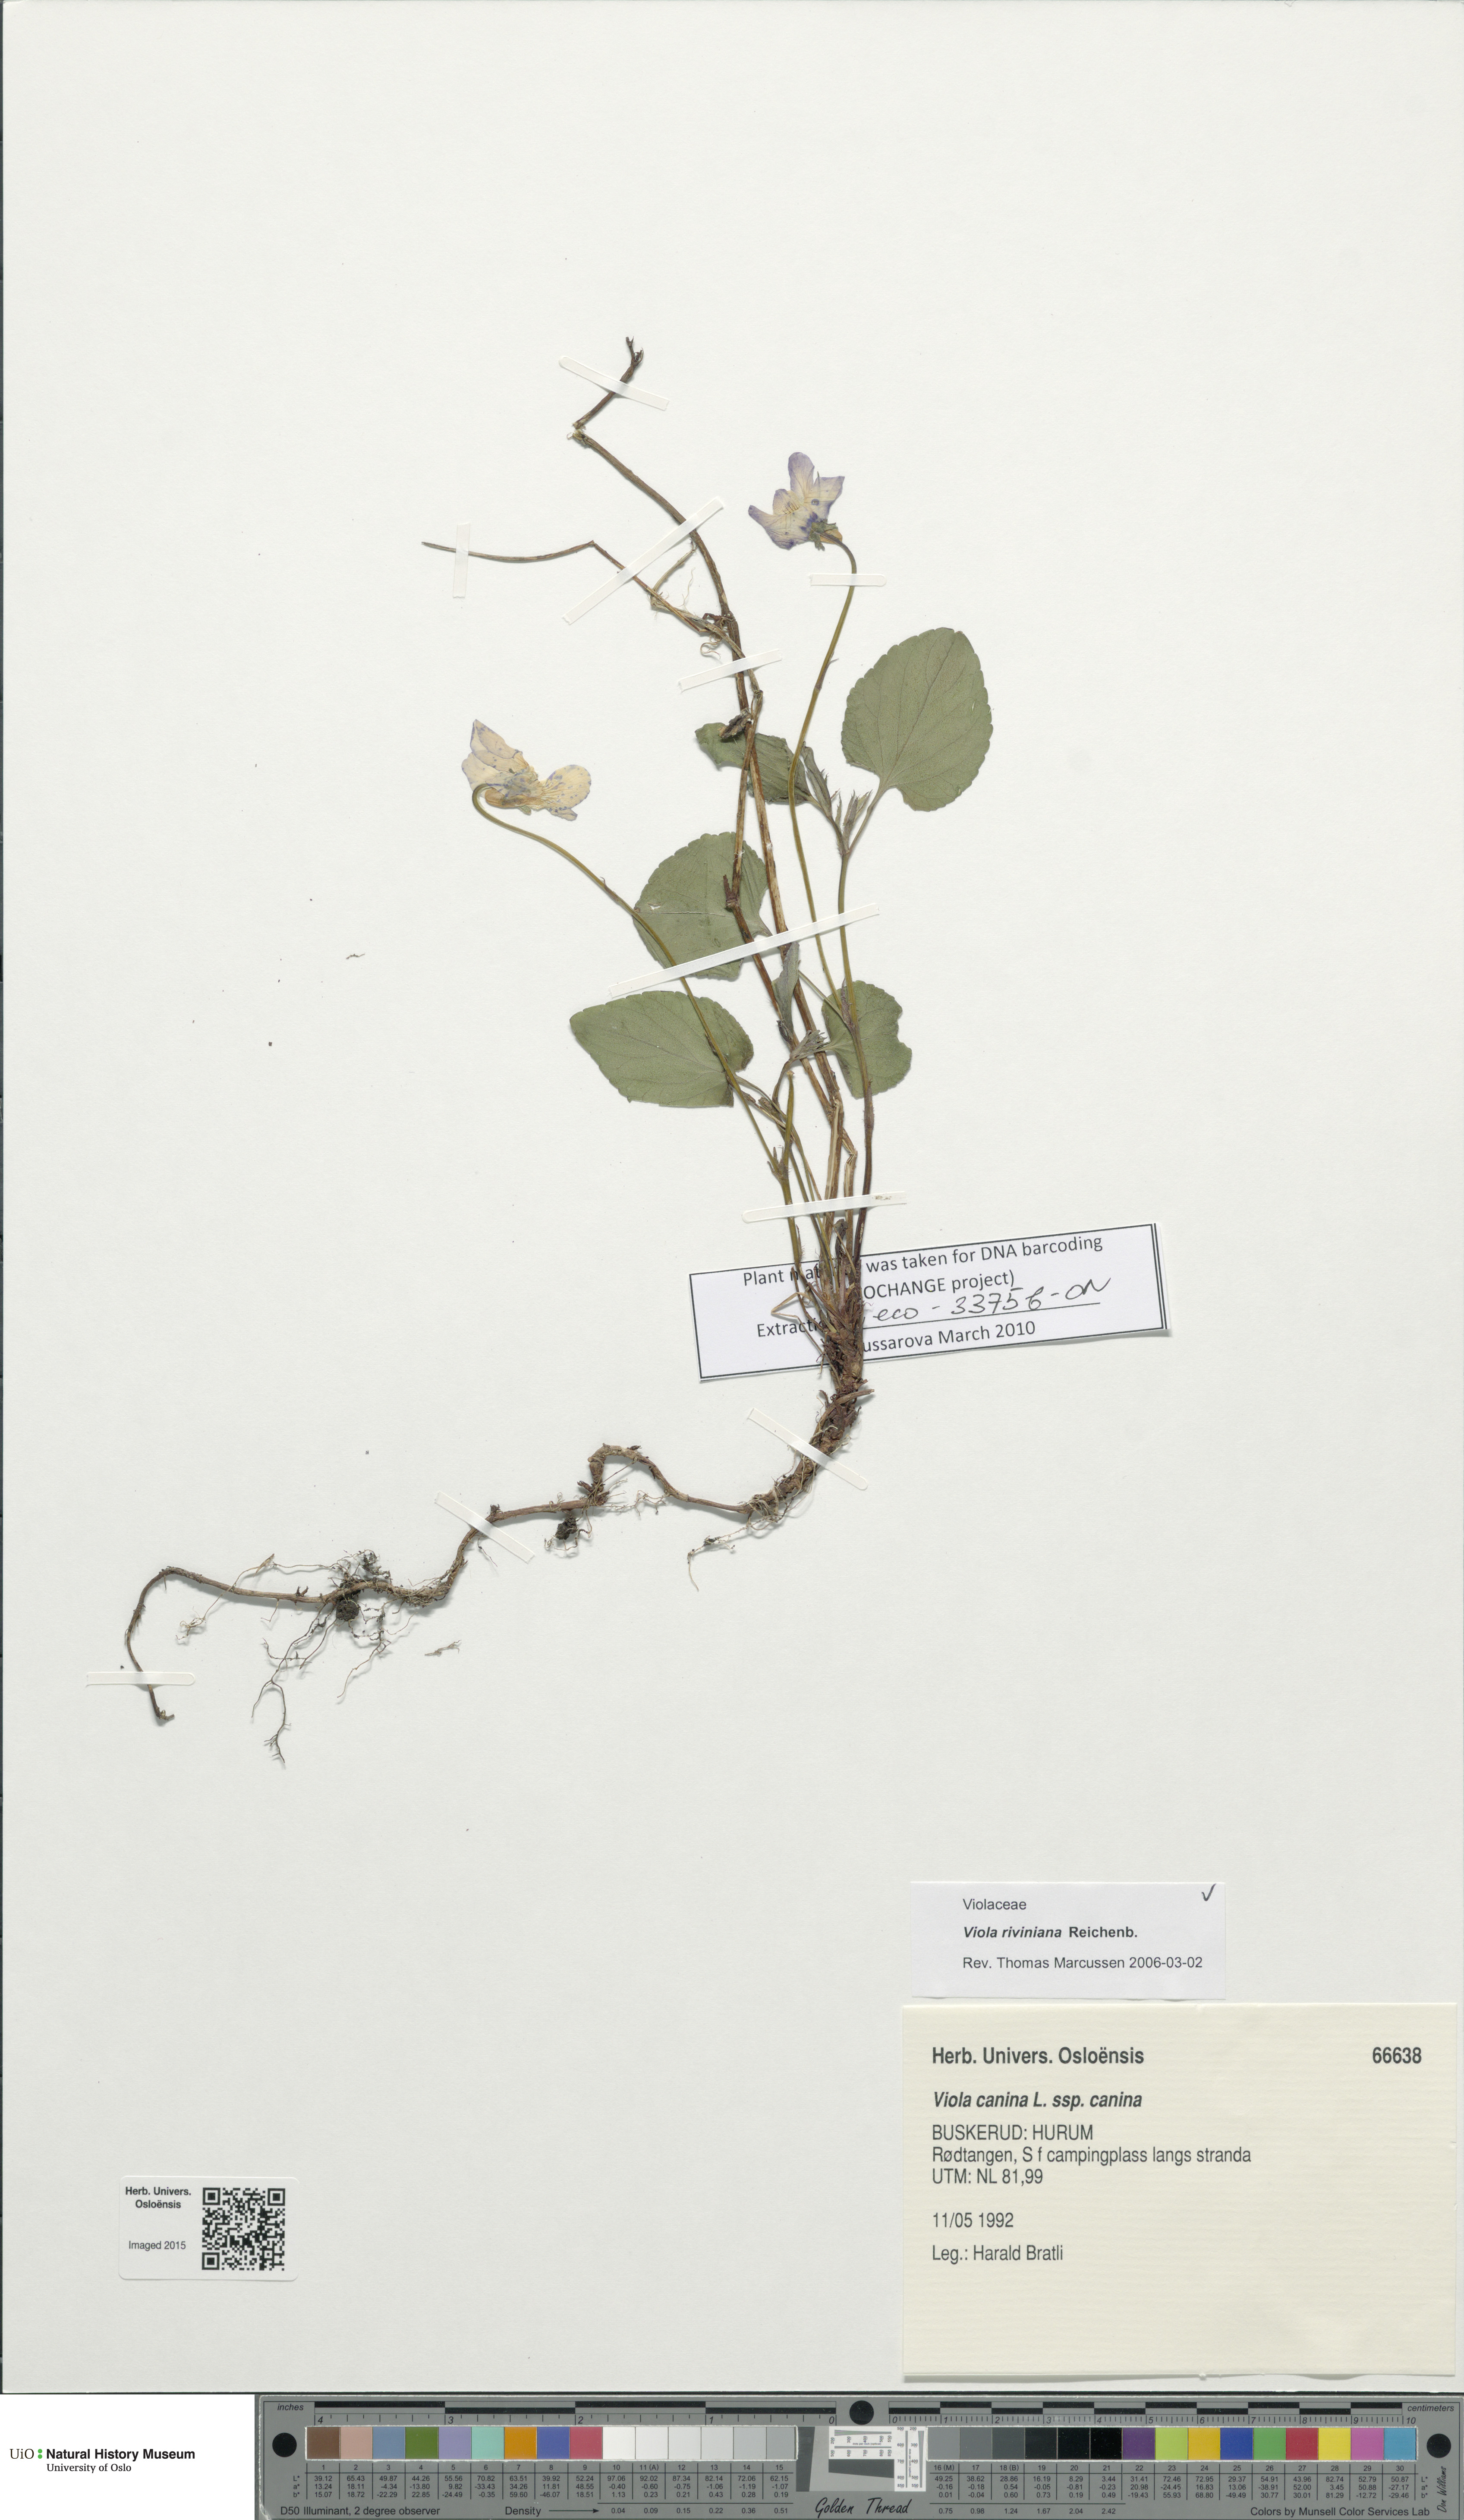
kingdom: Plantae
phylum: Tracheophyta
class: Magnoliopsida
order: Malpighiales
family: Violaceae
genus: Viola
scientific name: Viola riviniana
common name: Common dog-violet
